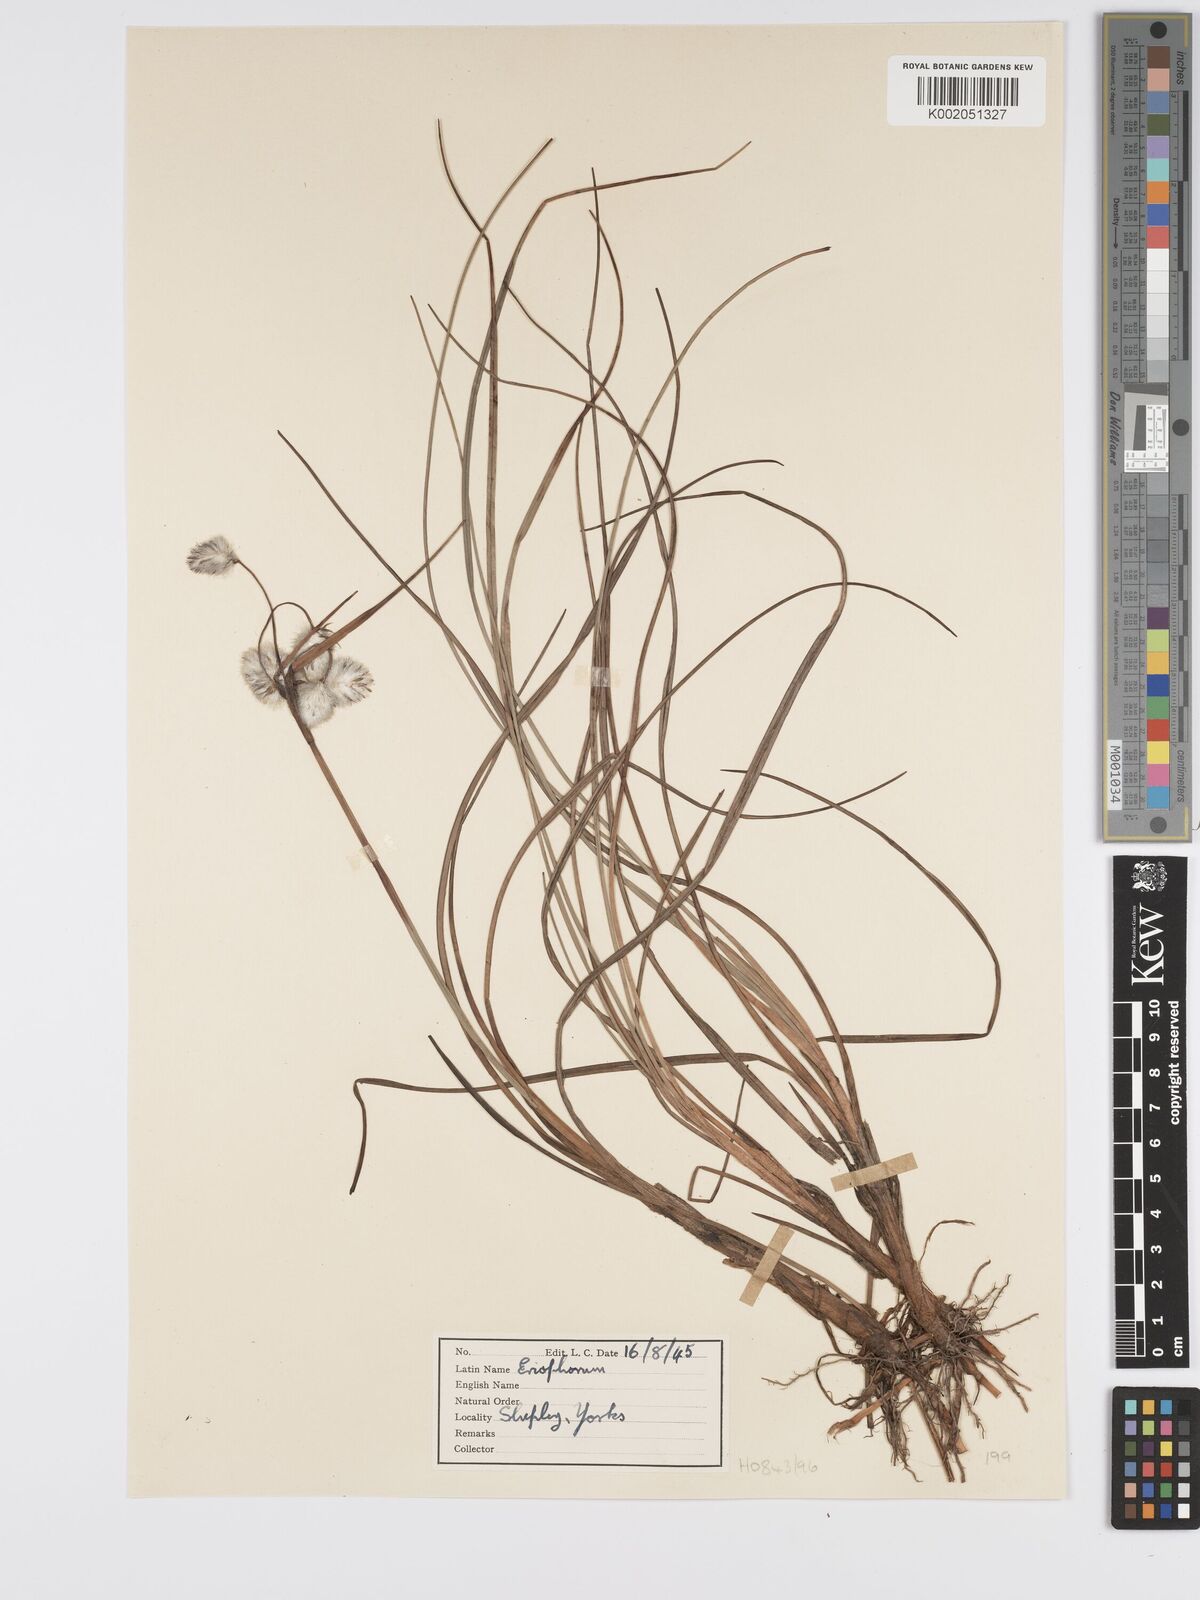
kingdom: Plantae
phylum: Tracheophyta
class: Liliopsida
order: Poales
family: Cyperaceae
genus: Eriophorum
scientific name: Eriophorum
